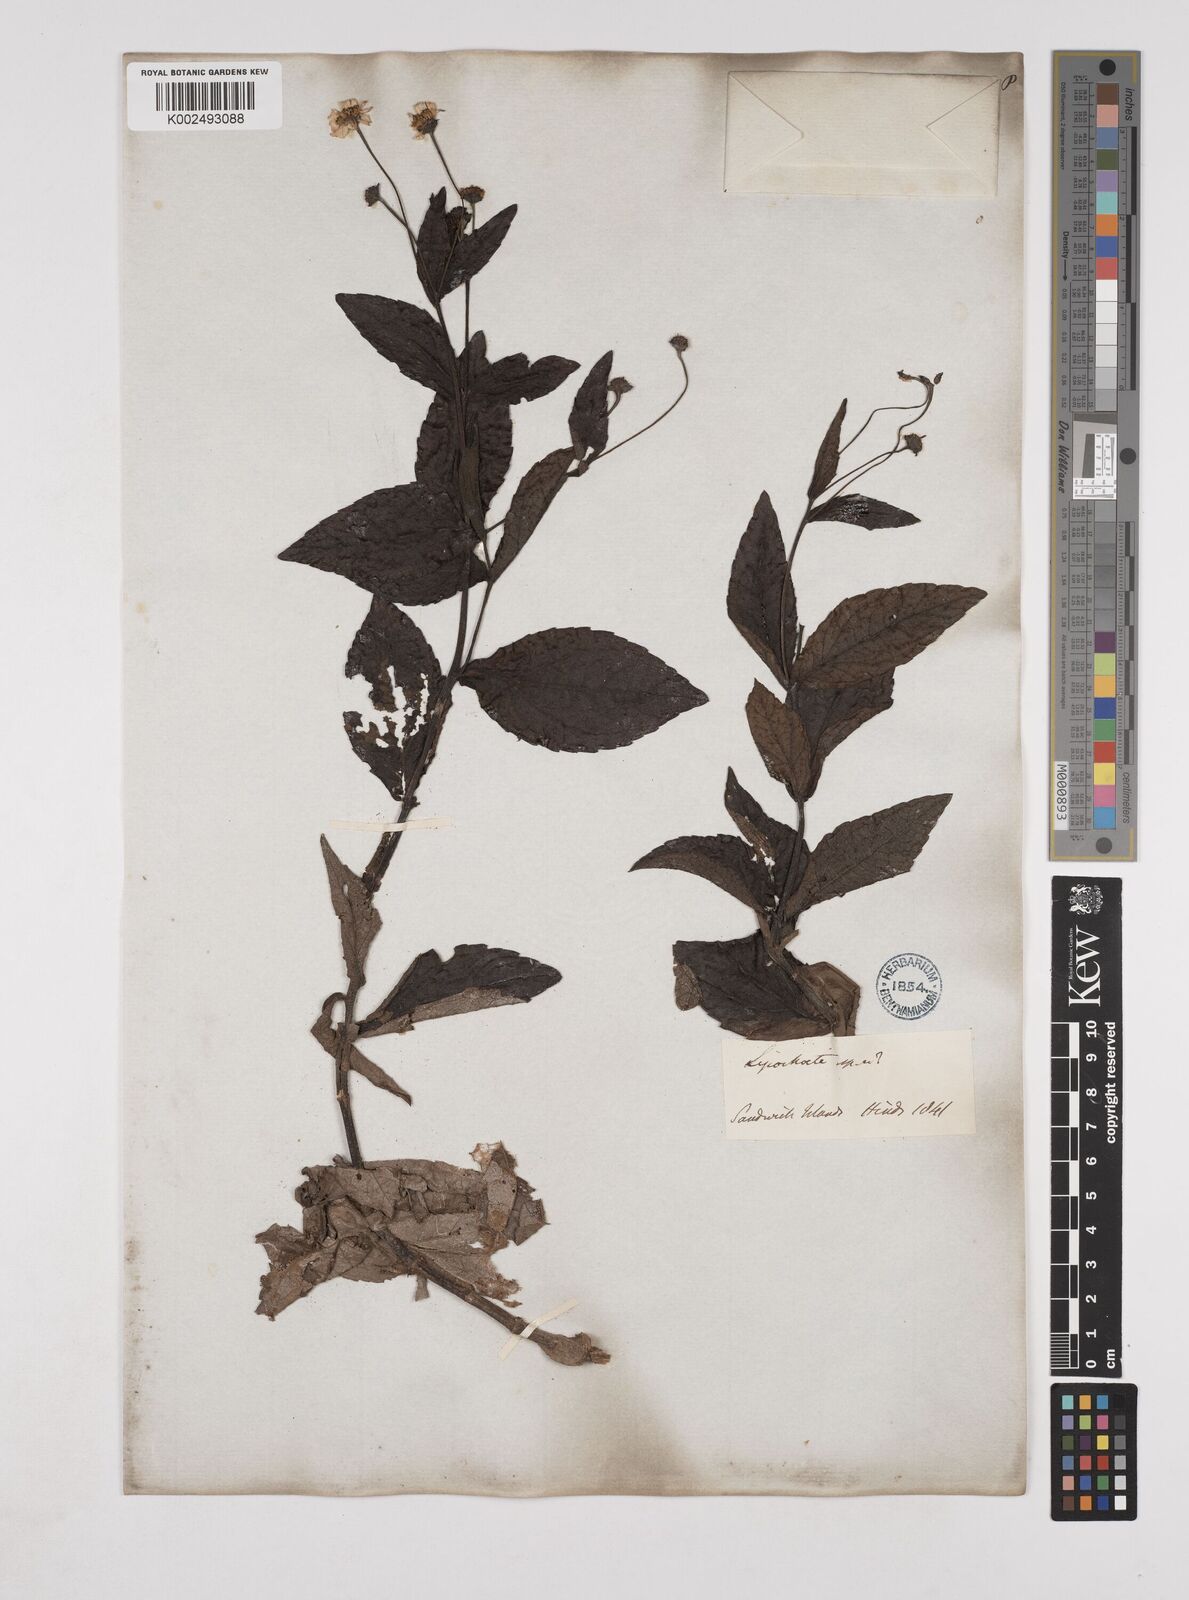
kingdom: Plantae
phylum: Tracheophyta
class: Magnoliopsida
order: Asterales
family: Asteraceae
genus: Lipochaeta
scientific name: Lipochaeta
